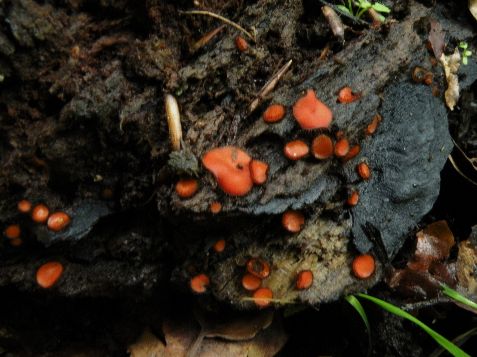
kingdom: Fungi
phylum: Ascomycota
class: Pezizomycetes
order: Pezizales
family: Pyronemataceae
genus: Scutellinia
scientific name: Scutellinia scutellata
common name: frynset skjoldbæger
